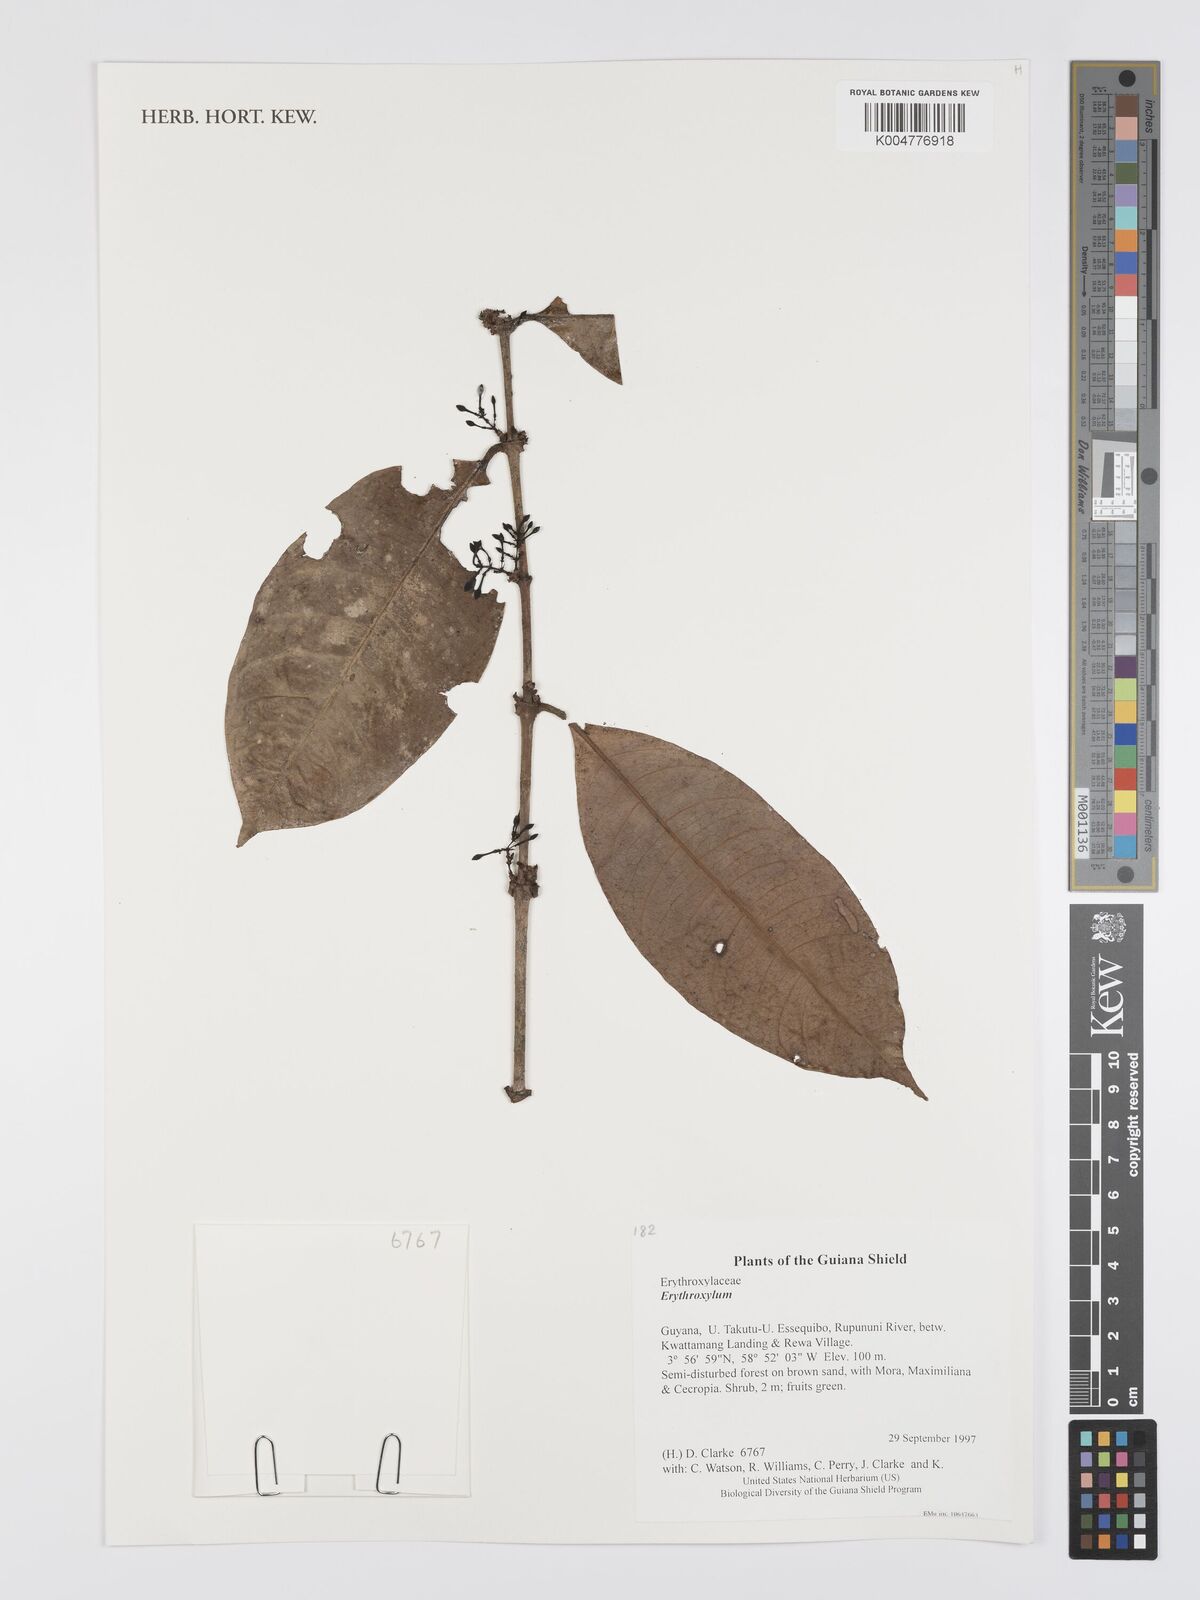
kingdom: Plantae
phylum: Tracheophyta
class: Magnoliopsida
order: Malpighiales
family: Erythroxylaceae
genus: Erythroxylum
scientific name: Erythroxylum
